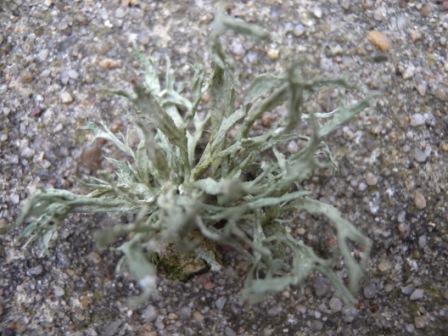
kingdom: Fungi
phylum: Ascomycota
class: Lecanoromycetes
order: Lecanorales
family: Ramalinaceae
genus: Ramalina
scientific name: Ramalina farinacea
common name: melet grenlav
